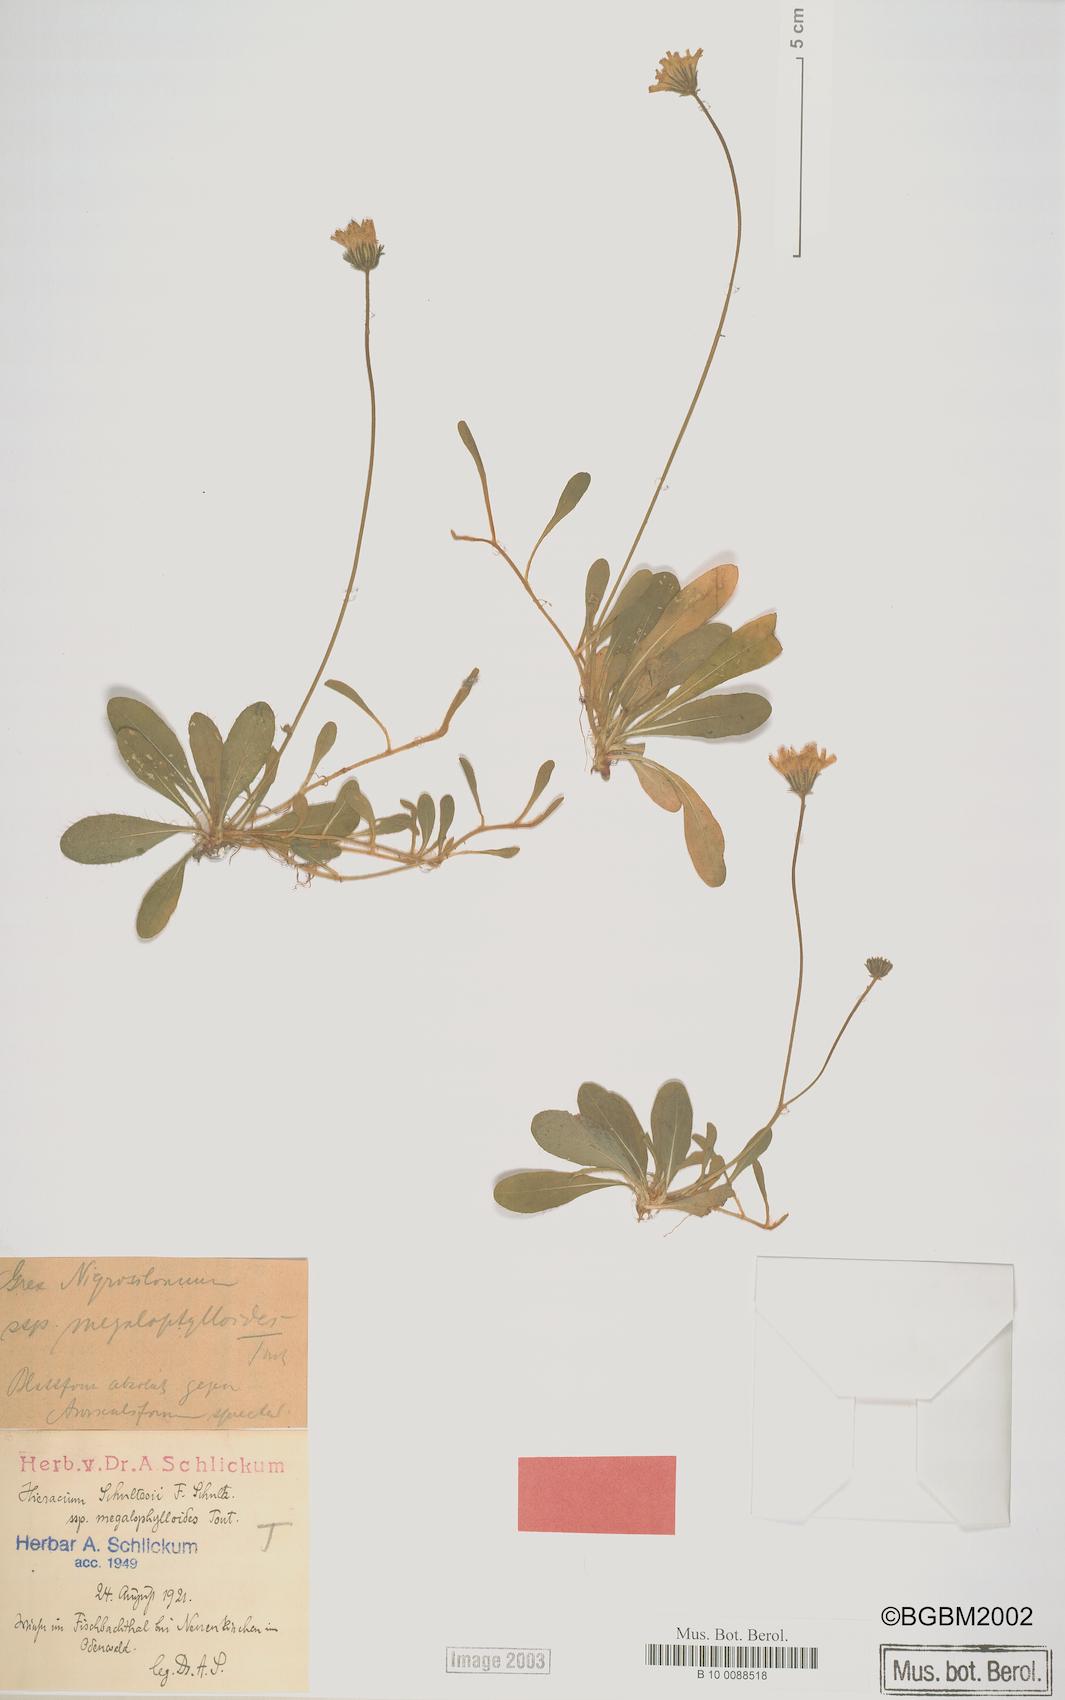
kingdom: Plantae
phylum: Tracheophyta
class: Magnoliopsida
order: Asterales
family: Asteraceae
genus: Pilosella
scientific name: Pilosella schultesii
